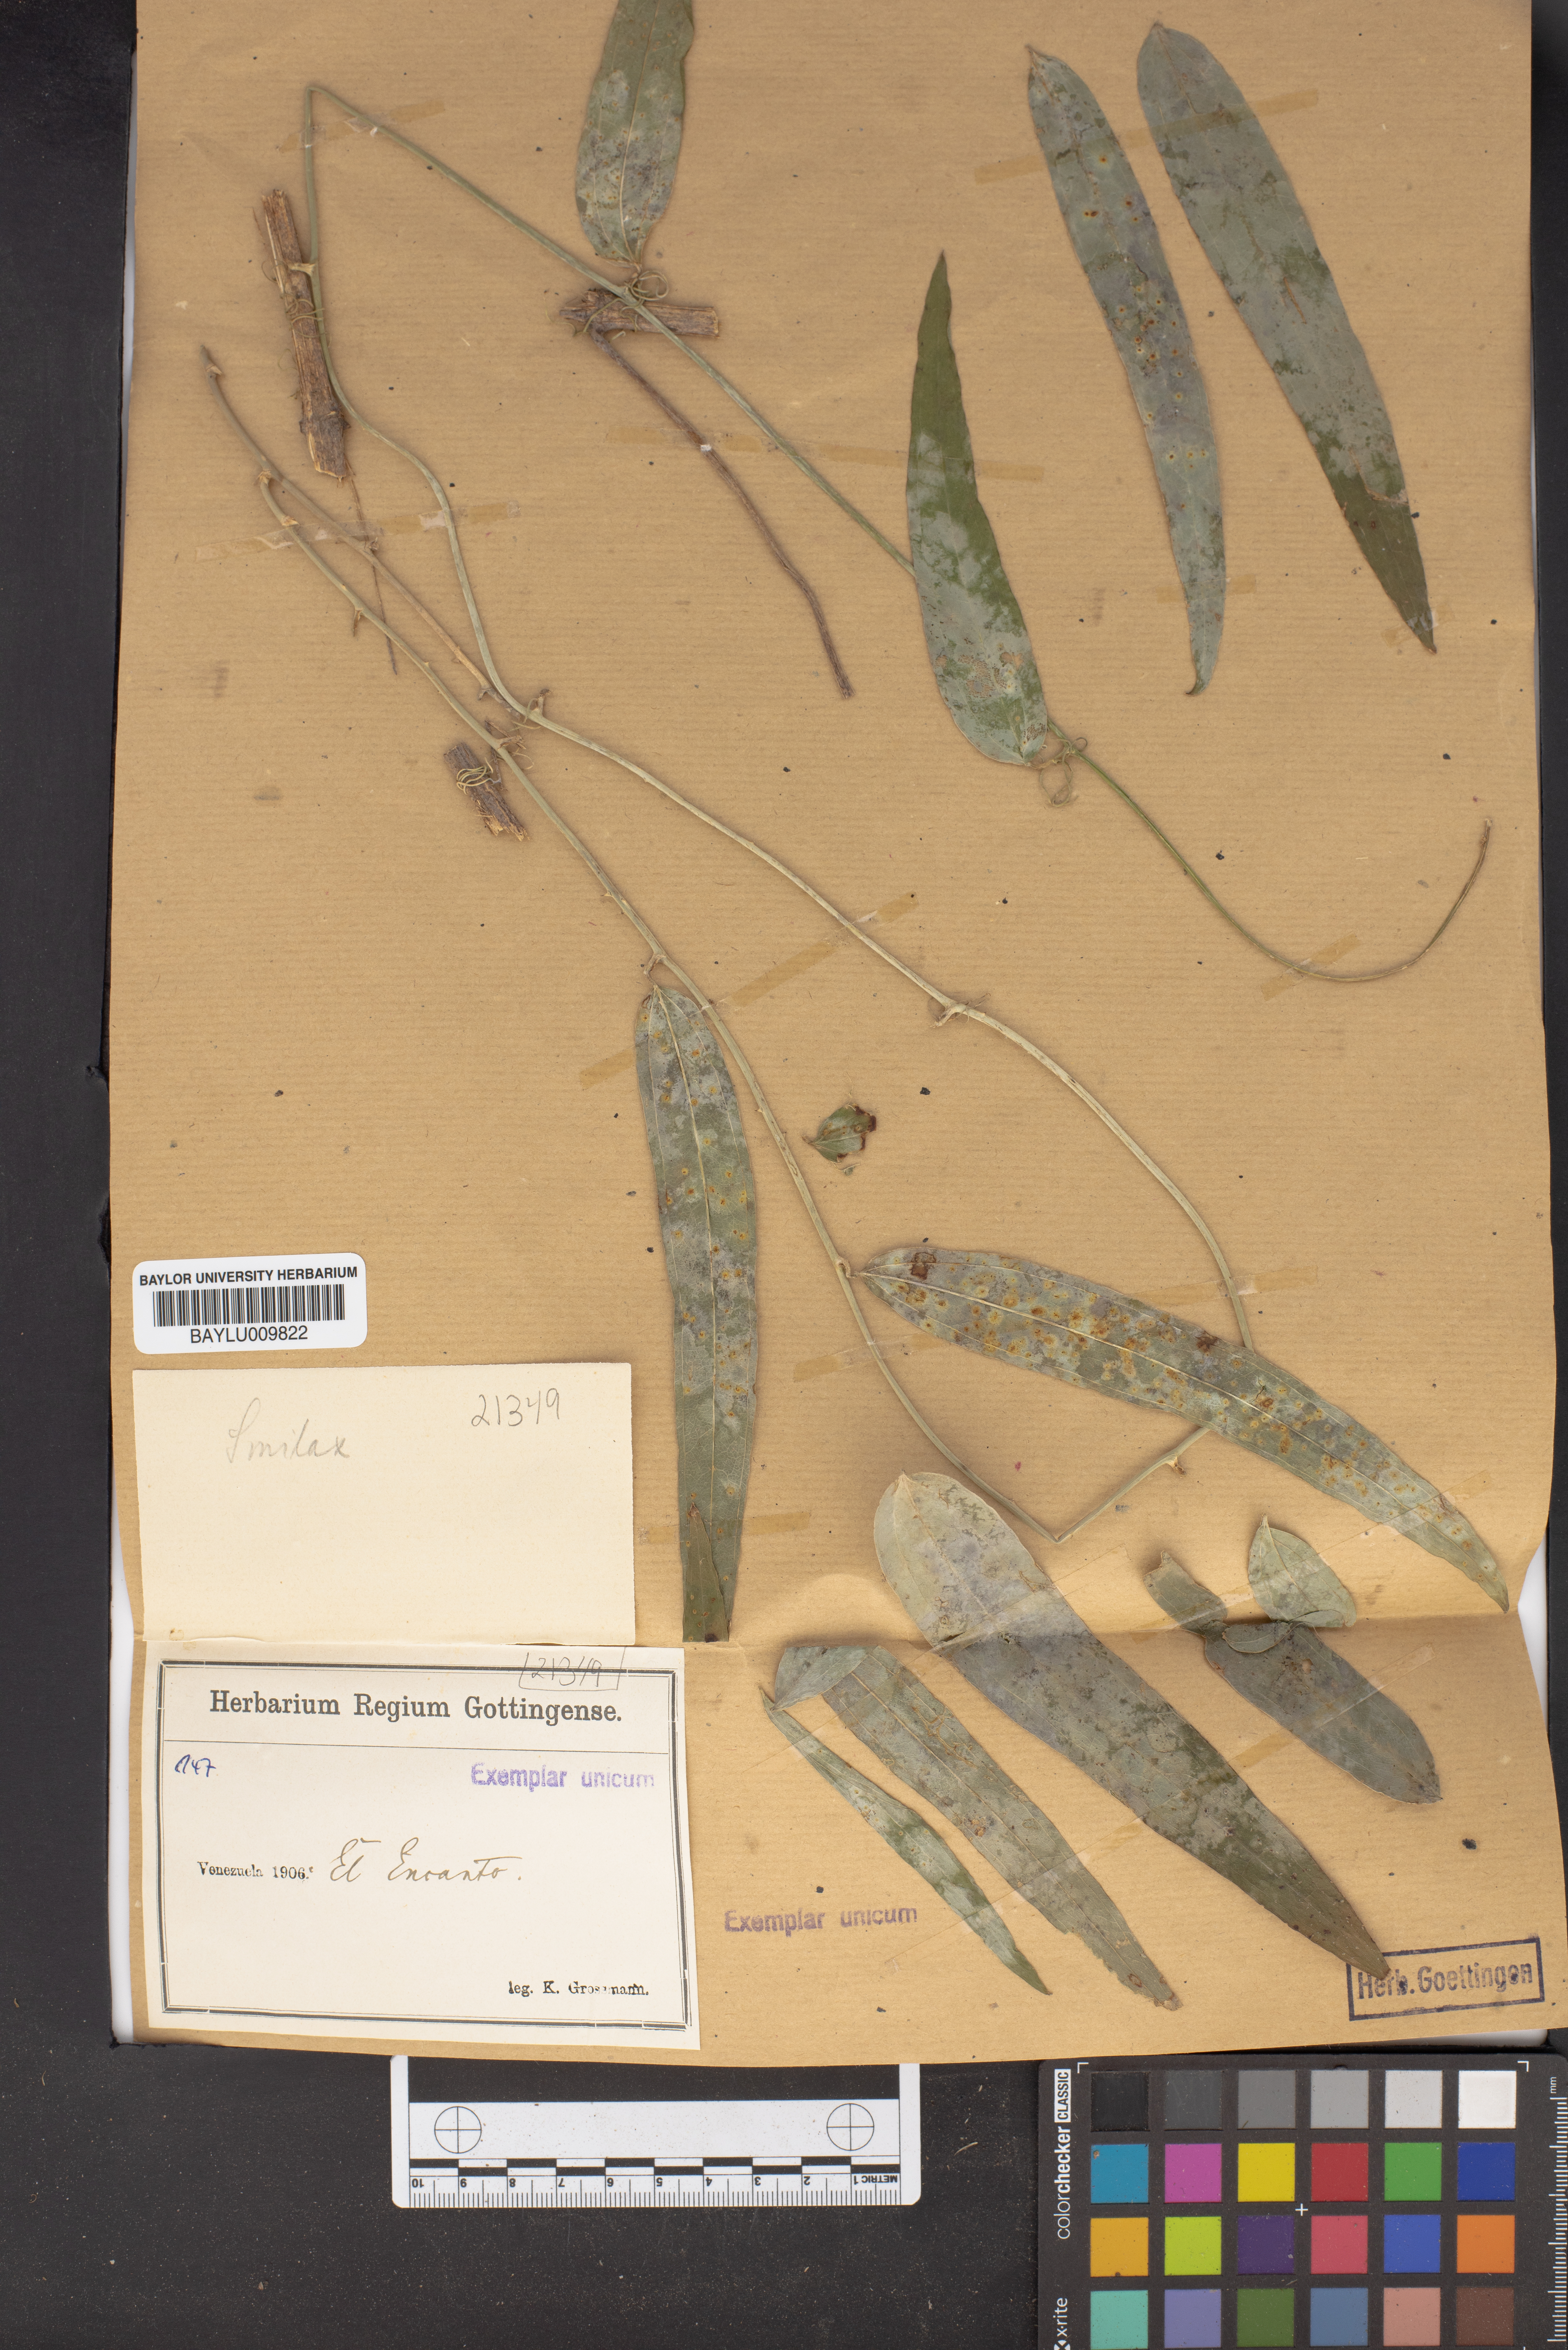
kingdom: Plantae
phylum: Tracheophyta
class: Liliopsida
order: Liliales
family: Smilacaceae
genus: Smilax
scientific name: Smilax
